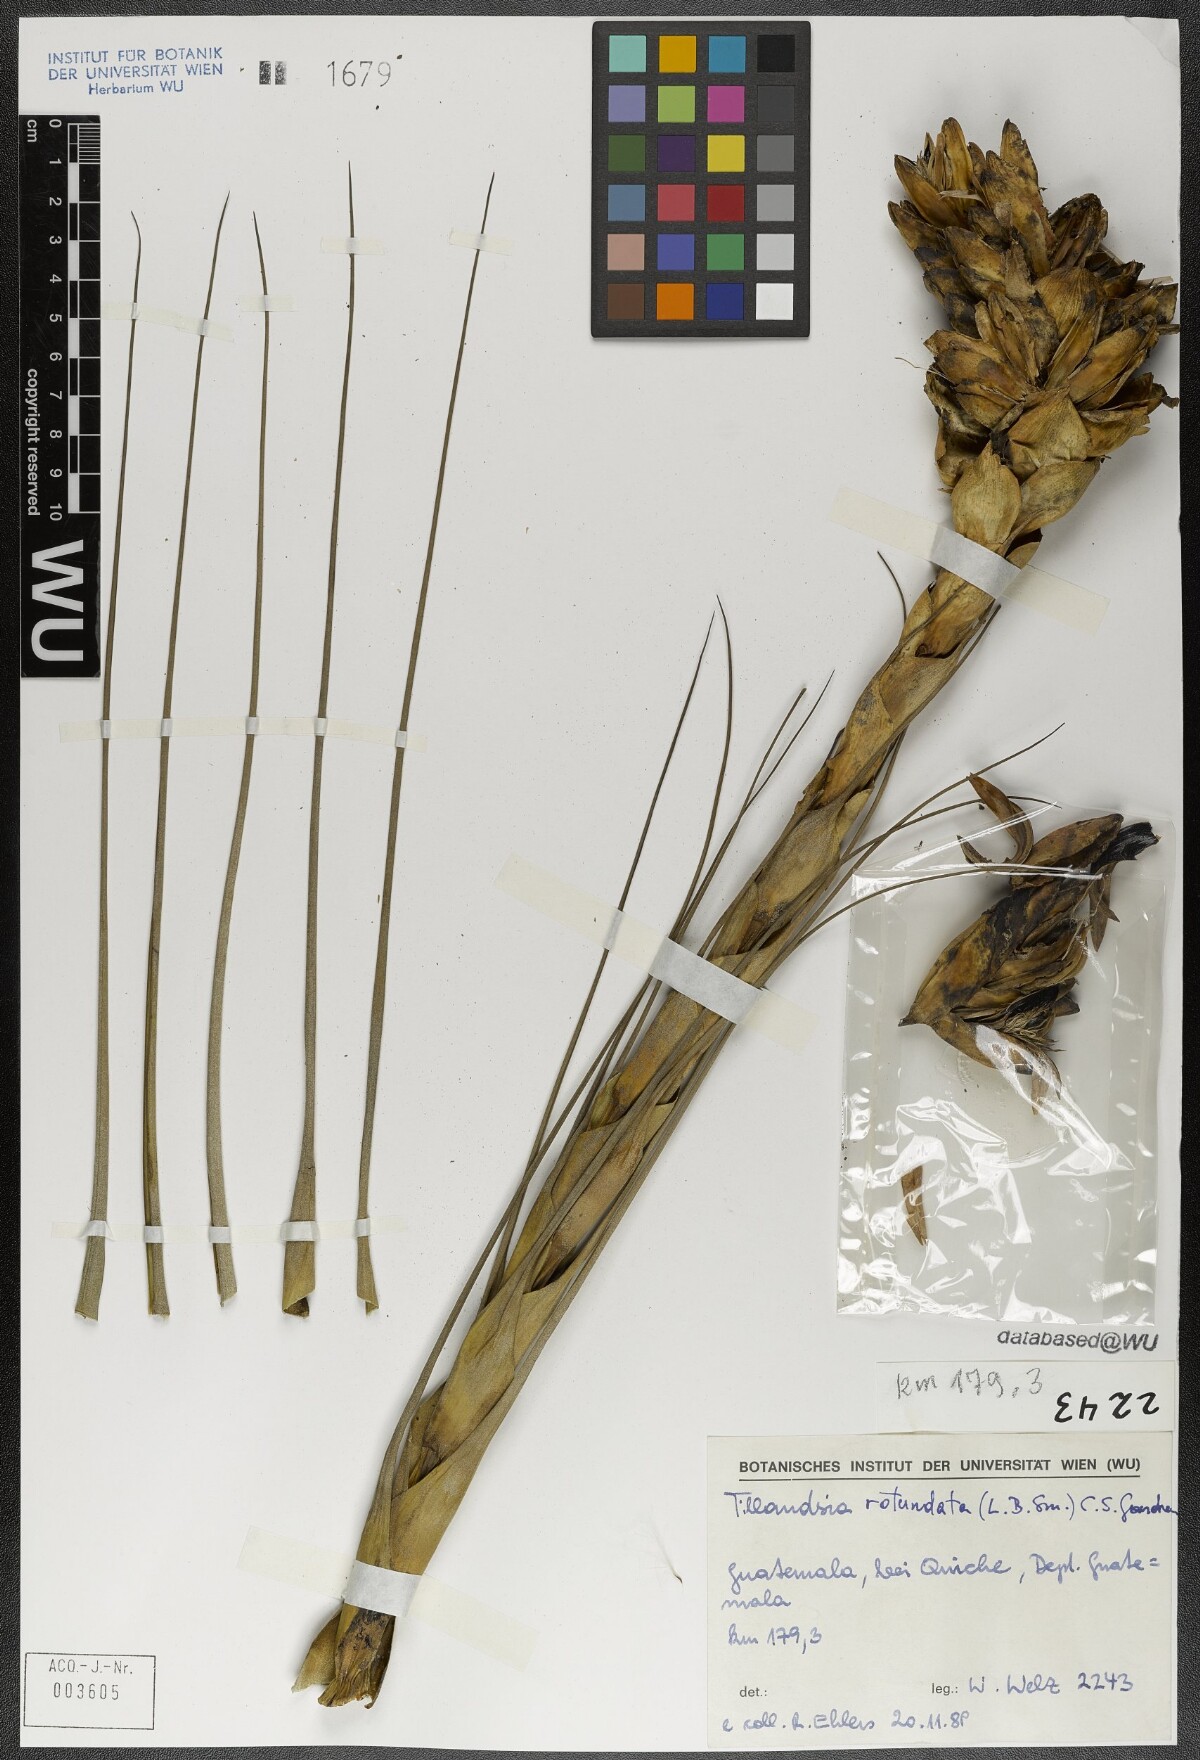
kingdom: Plantae
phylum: Tracheophyta
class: Liliopsida
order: Poales
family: Bromeliaceae
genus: Tillandsia
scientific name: Tillandsia rotundata
